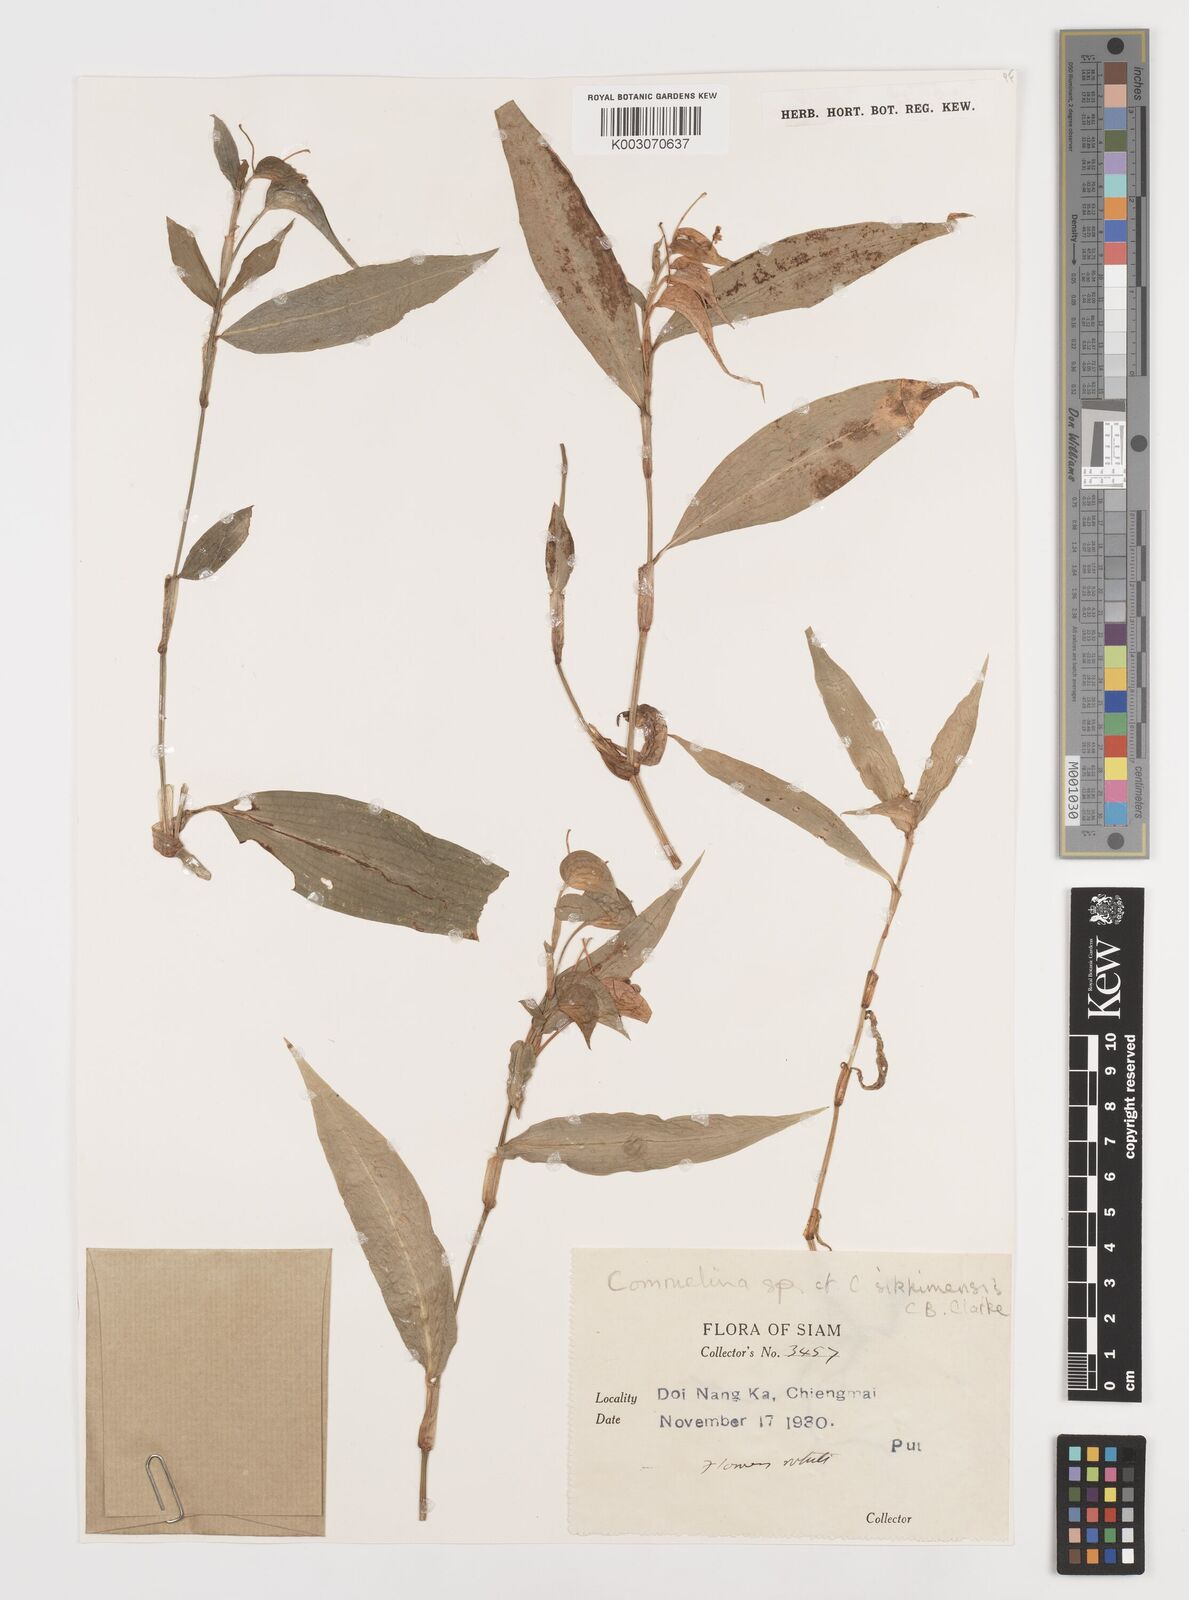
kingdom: Plantae
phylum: Tracheophyta
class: Liliopsida
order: Commelinales
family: Commelinaceae
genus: Commelina
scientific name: Commelina sikkimensis
